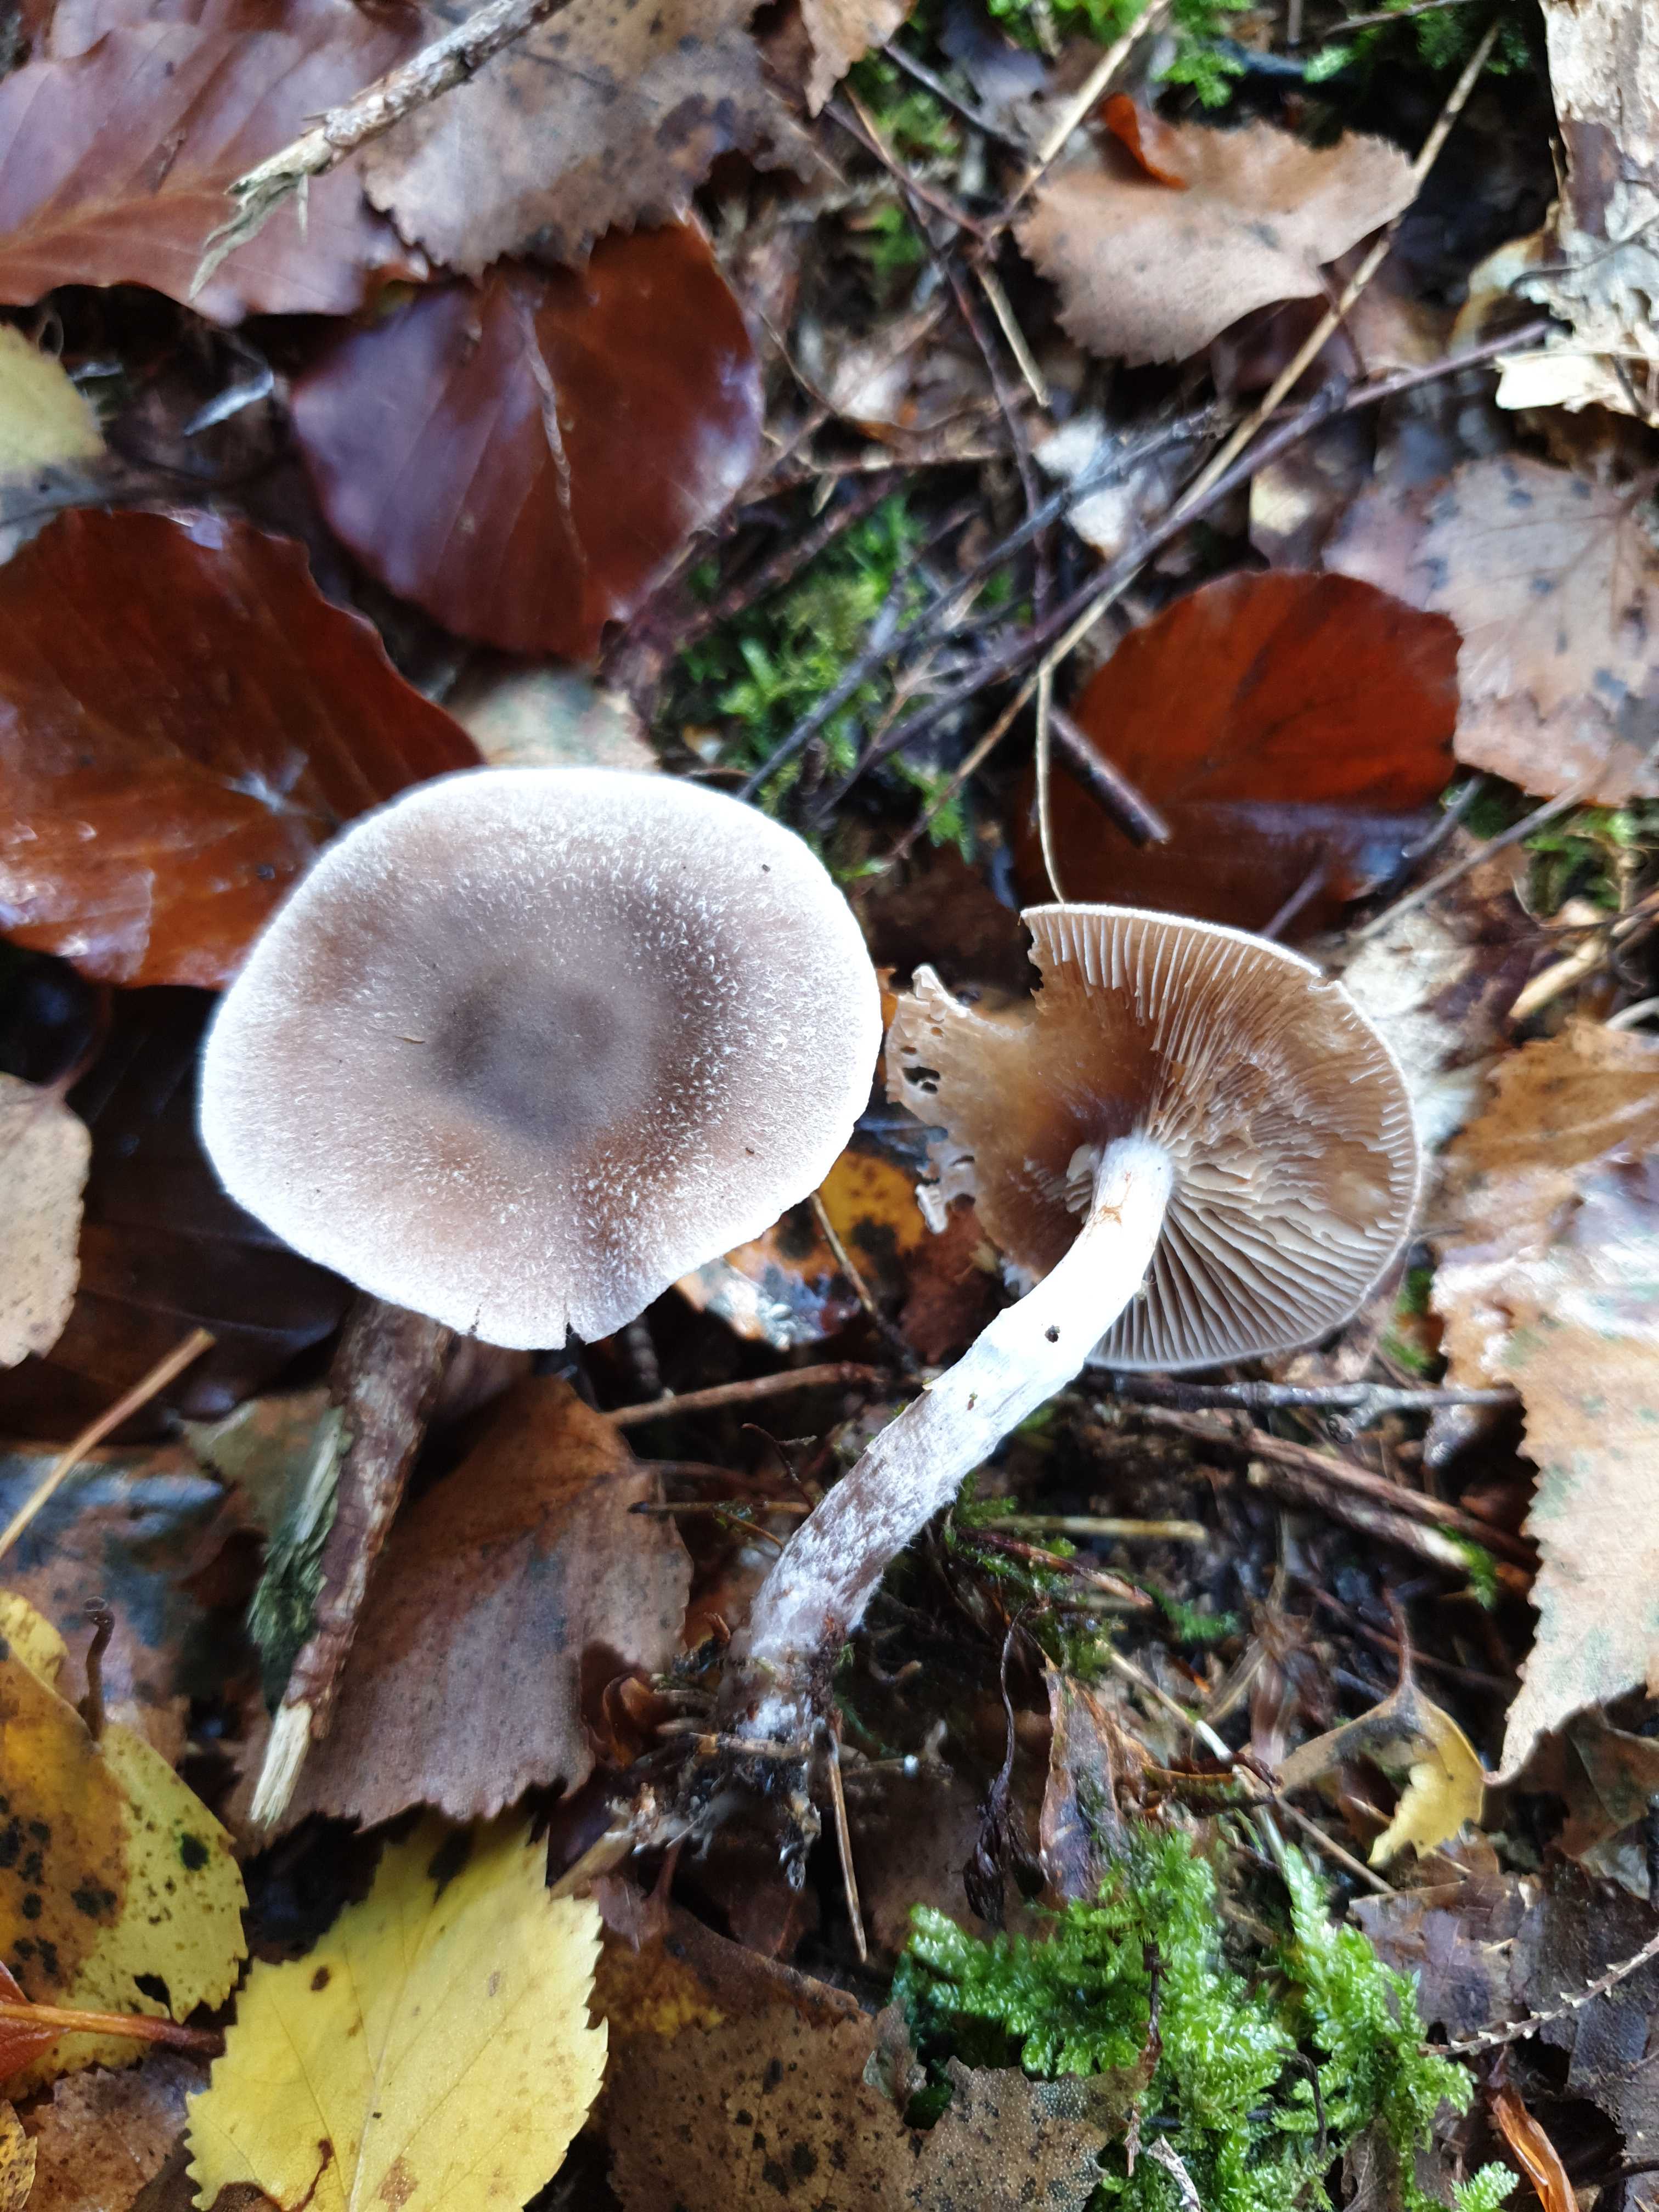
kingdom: Fungi
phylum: Basidiomycota
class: Agaricomycetes
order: Agaricales
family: Cortinariaceae
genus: Cortinarius
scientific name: Cortinarius hemitrichus
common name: hvidfnugget slørhat
